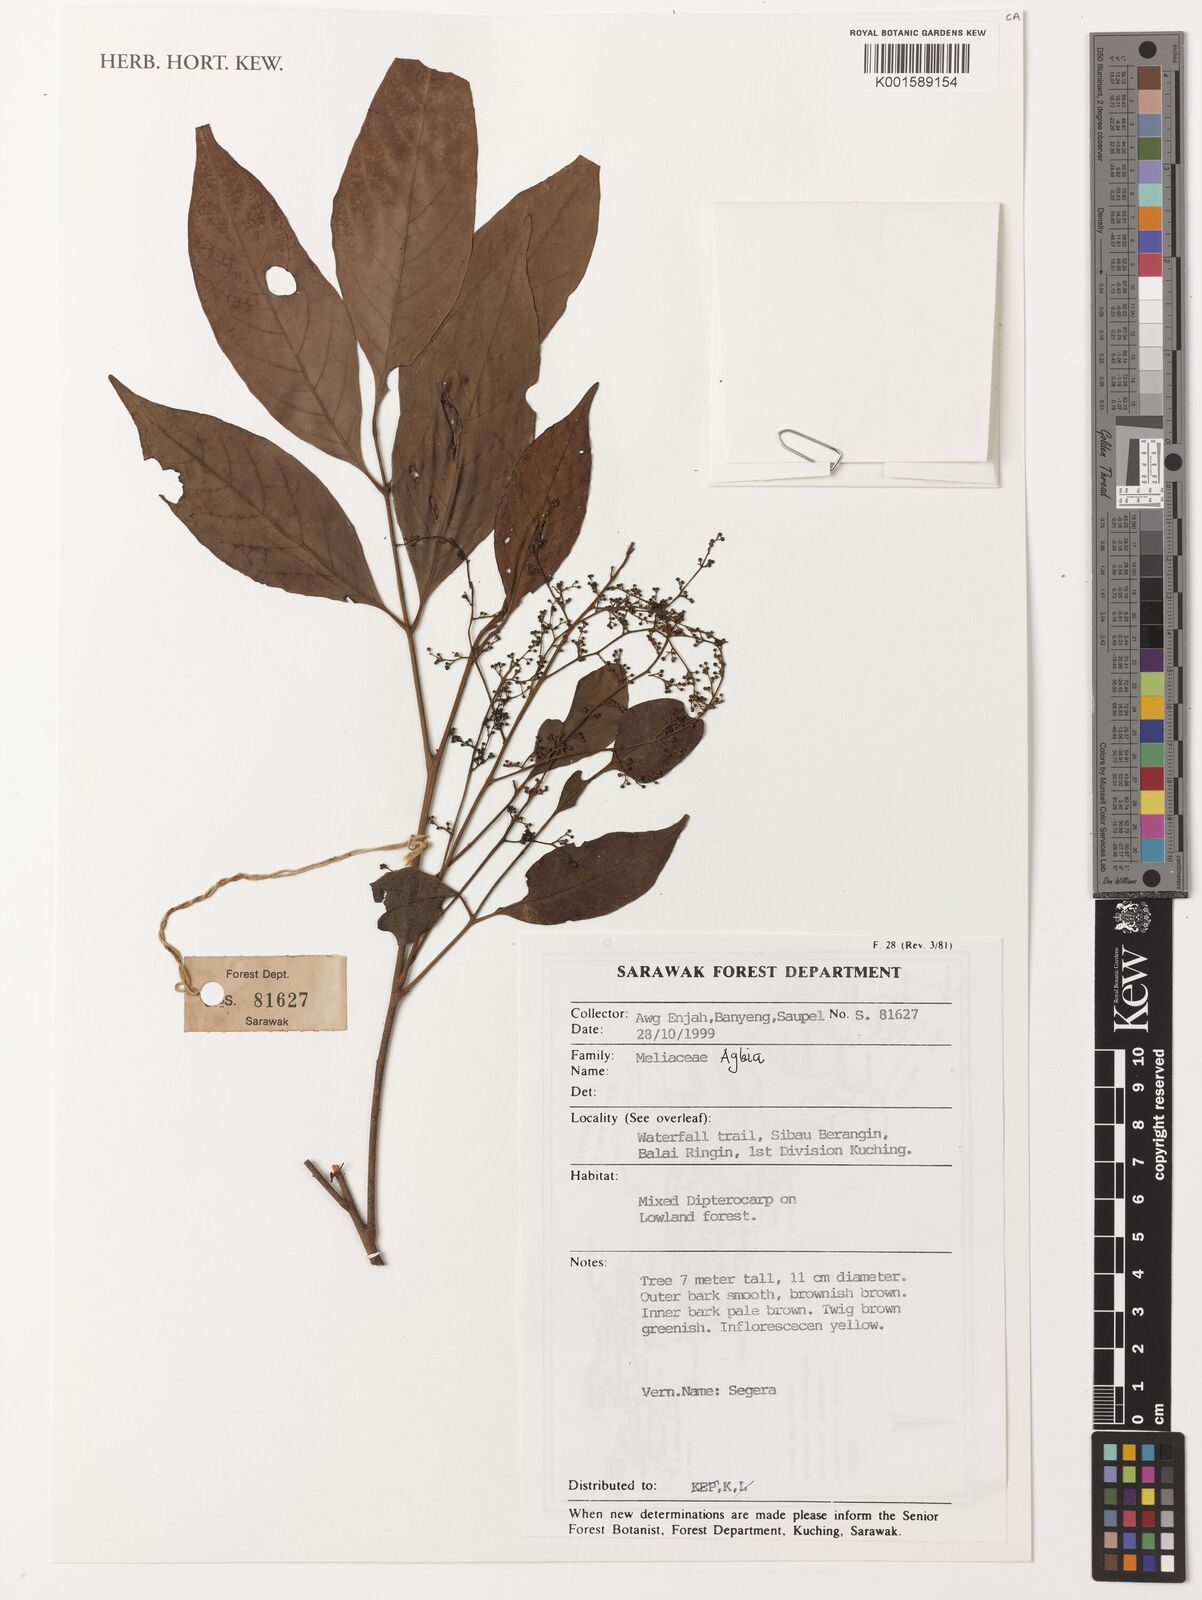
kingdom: Plantae
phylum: Tracheophyta
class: Magnoliopsida
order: Sapindales
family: Meliaceae
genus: Aglaia
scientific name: Aglaia odoratissima
